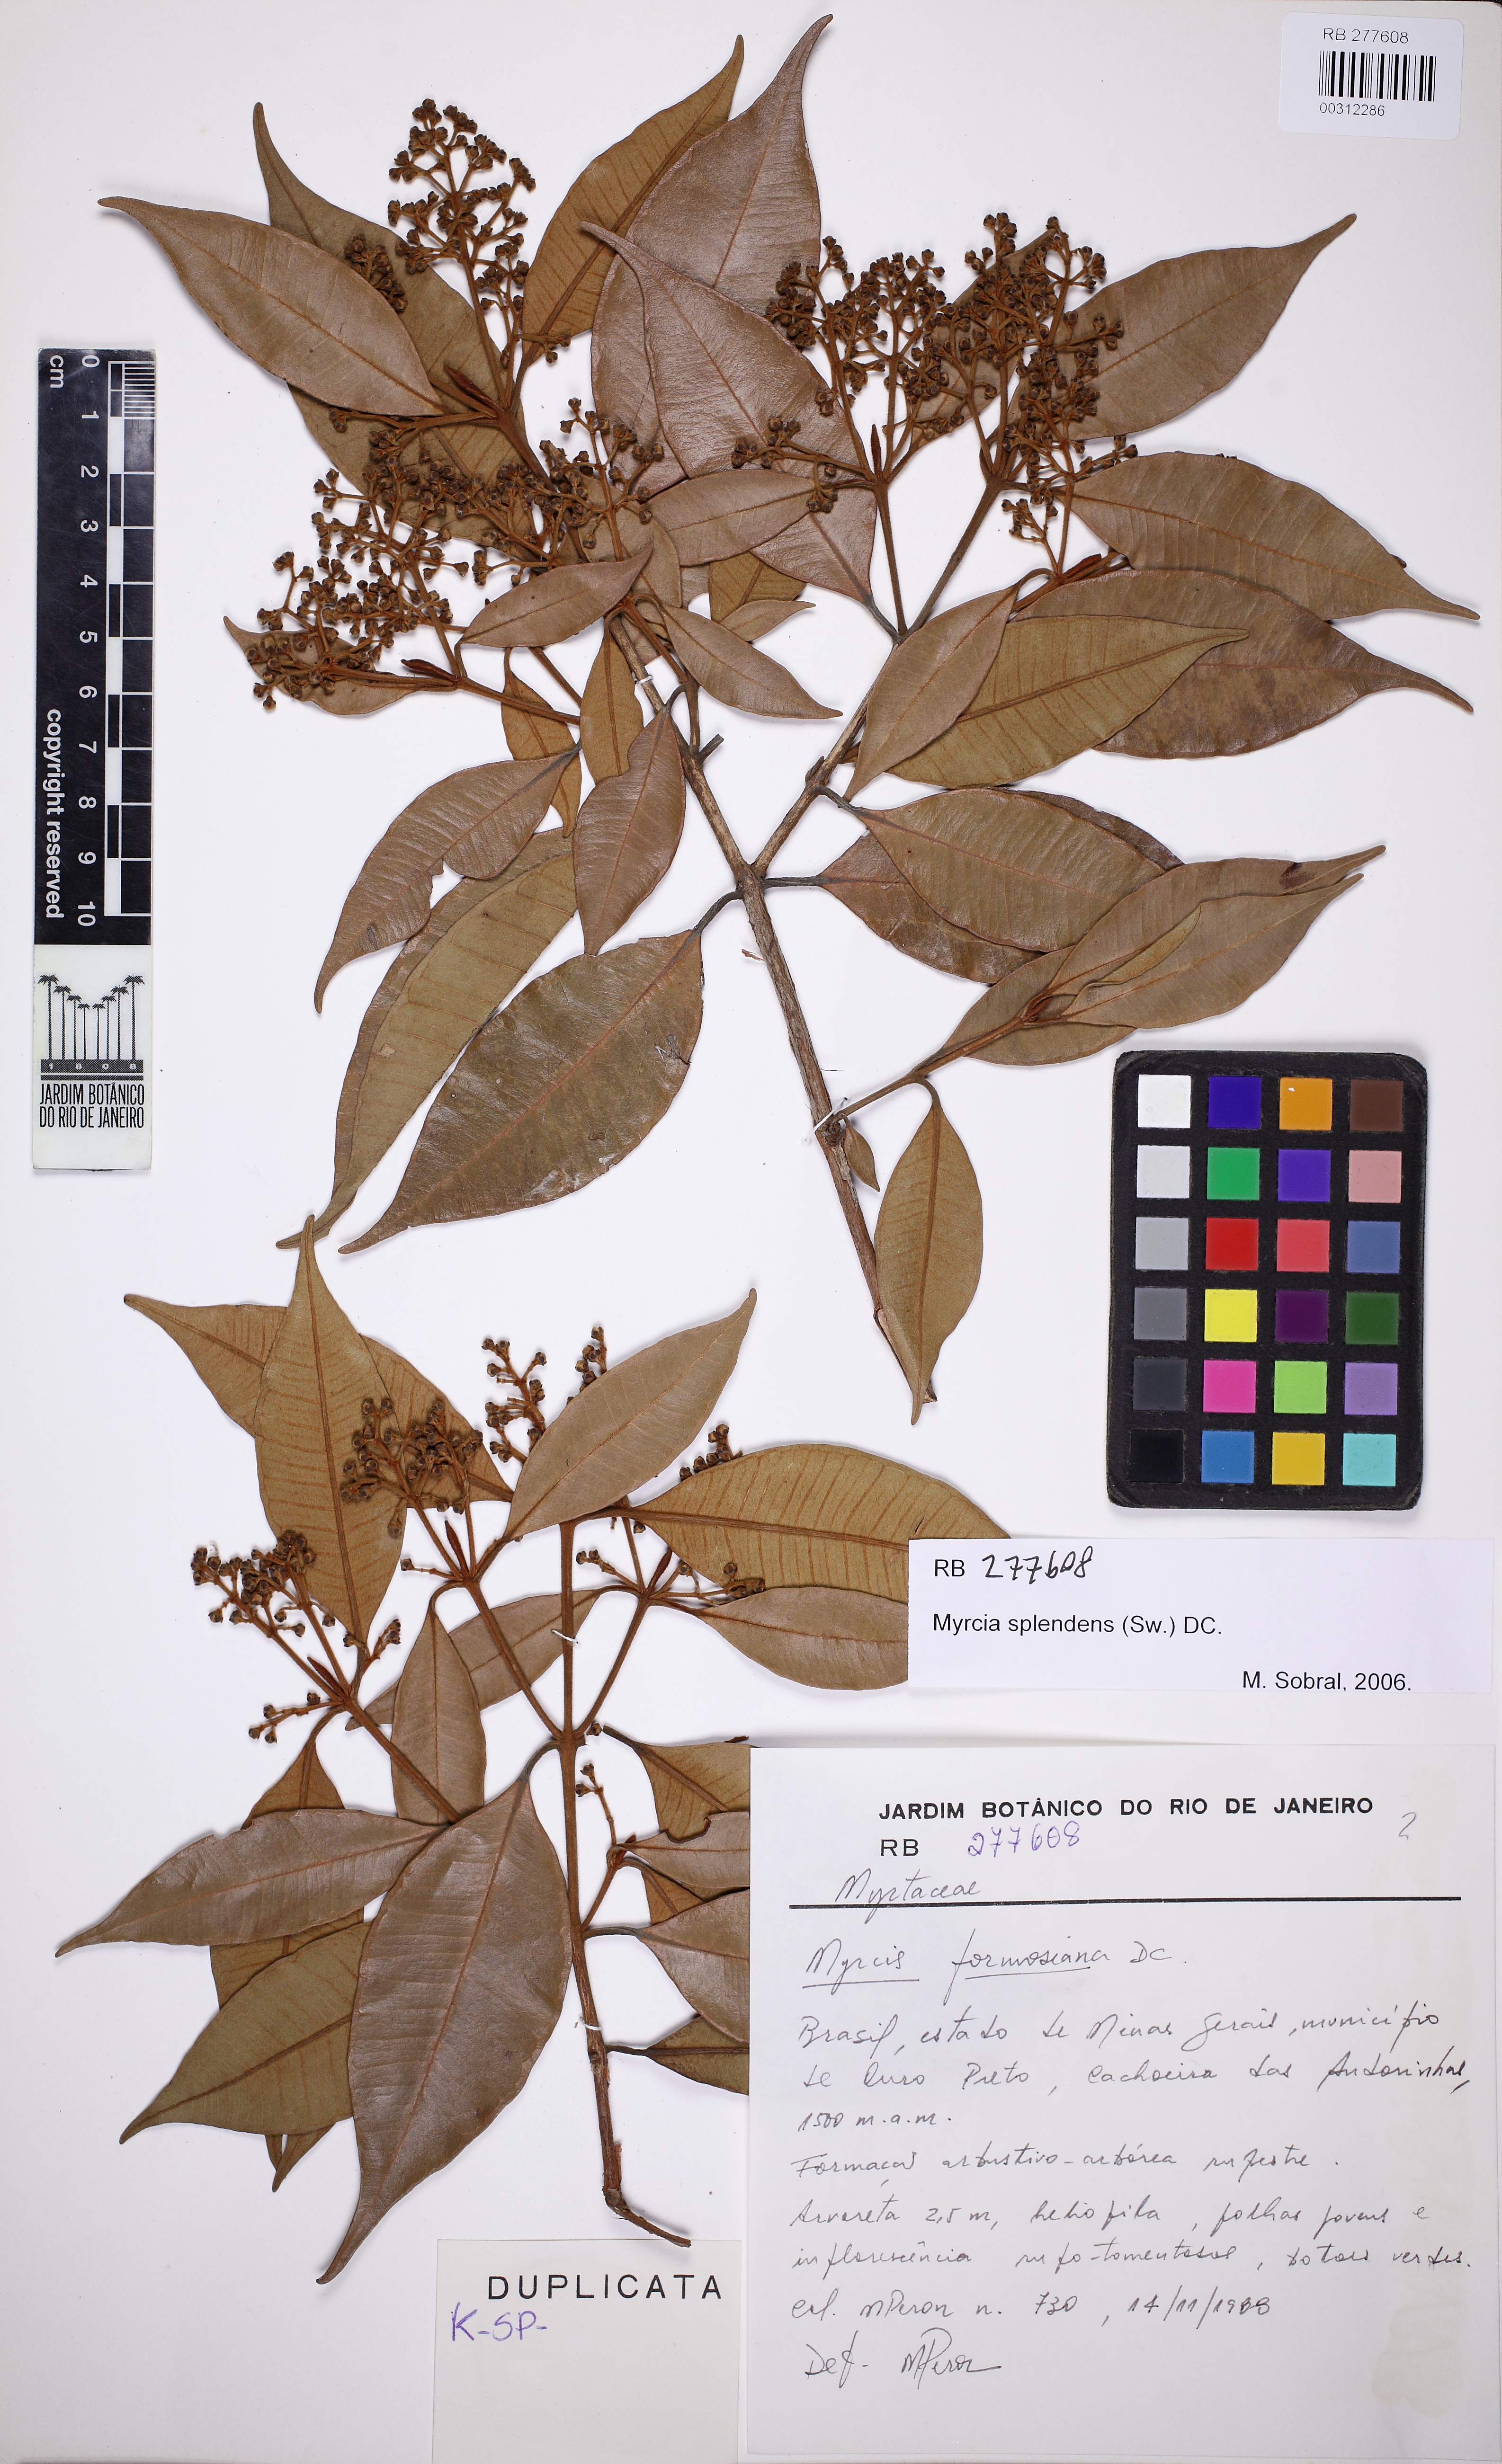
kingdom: Plantae
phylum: Tracheophyta
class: Magnoliopsida
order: Myrtales
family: Myrtaceae
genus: Myrcia
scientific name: Myrcia splendens
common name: Surinam cherry
